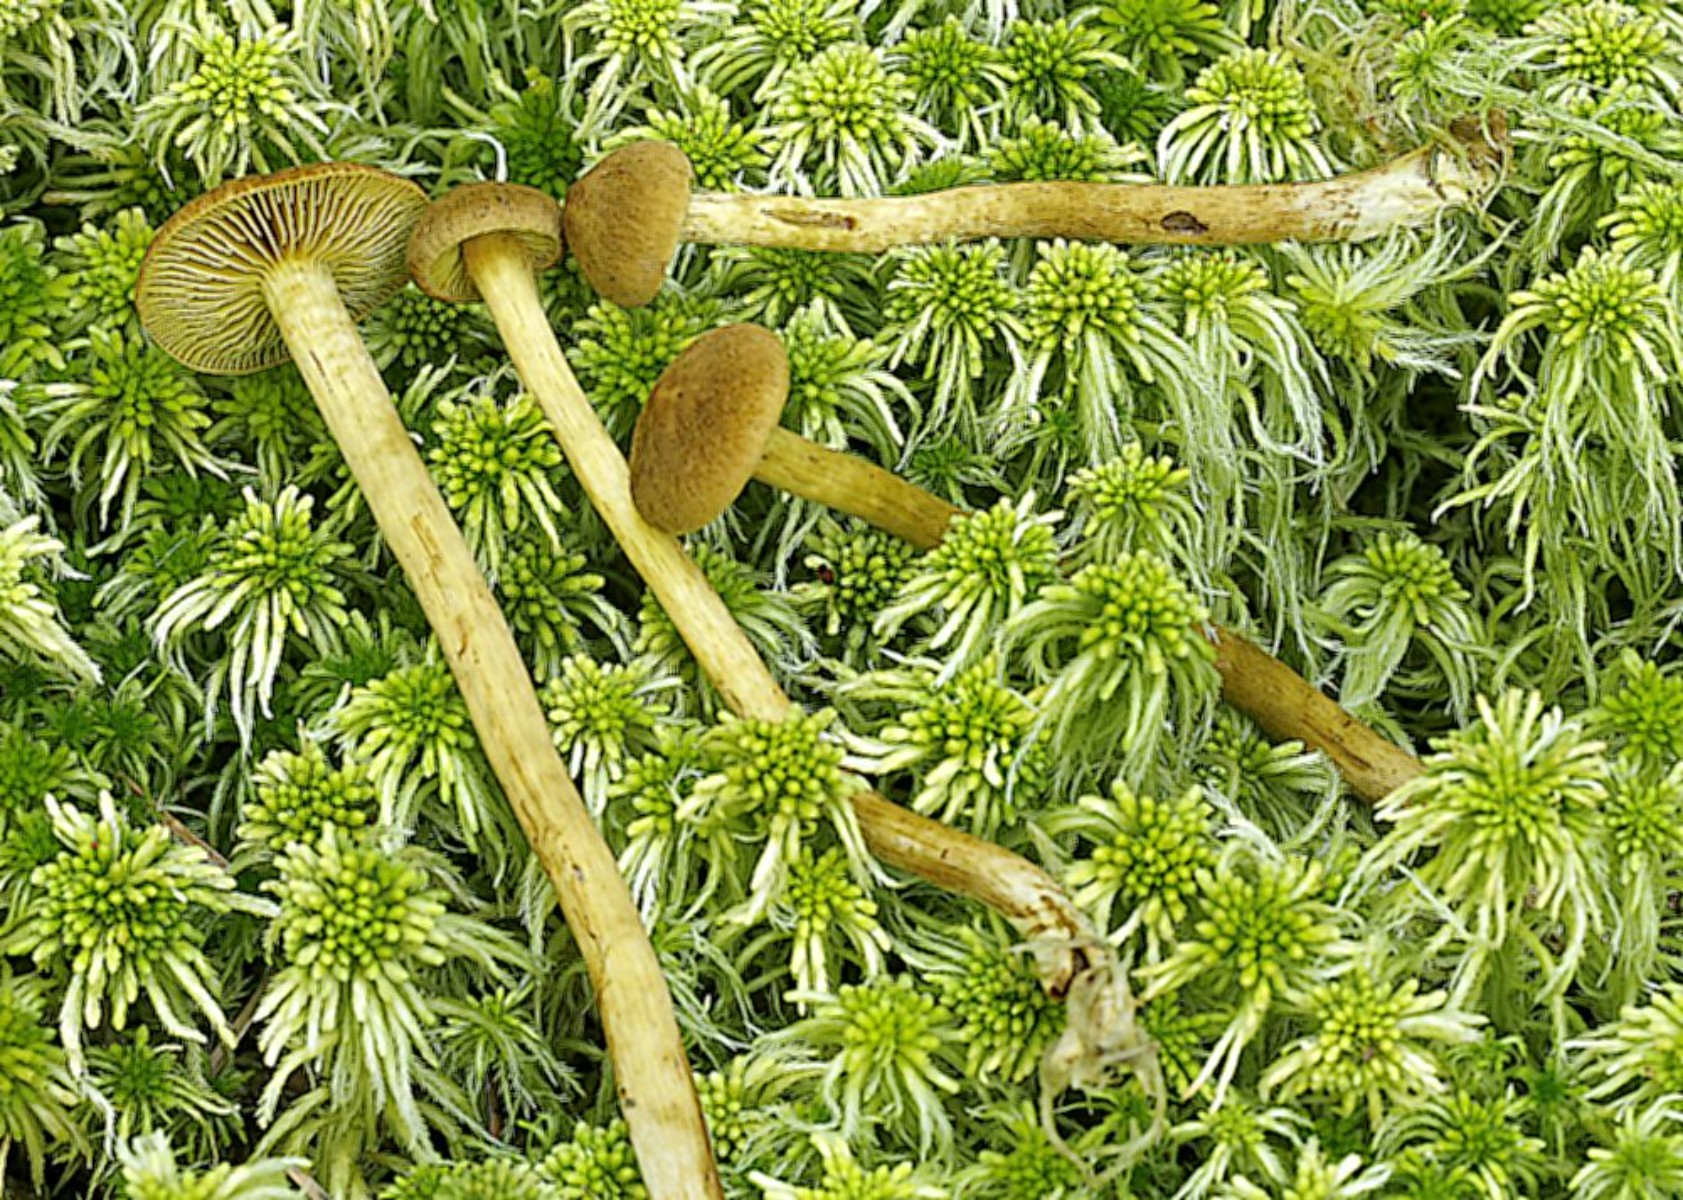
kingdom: Fungi
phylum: Basidiomycota
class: Agaricomycetes
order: Agaricales
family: Cortinariaceae
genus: Cortinarius
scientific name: Cortinarius subfusipes
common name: højmose-slørhat
